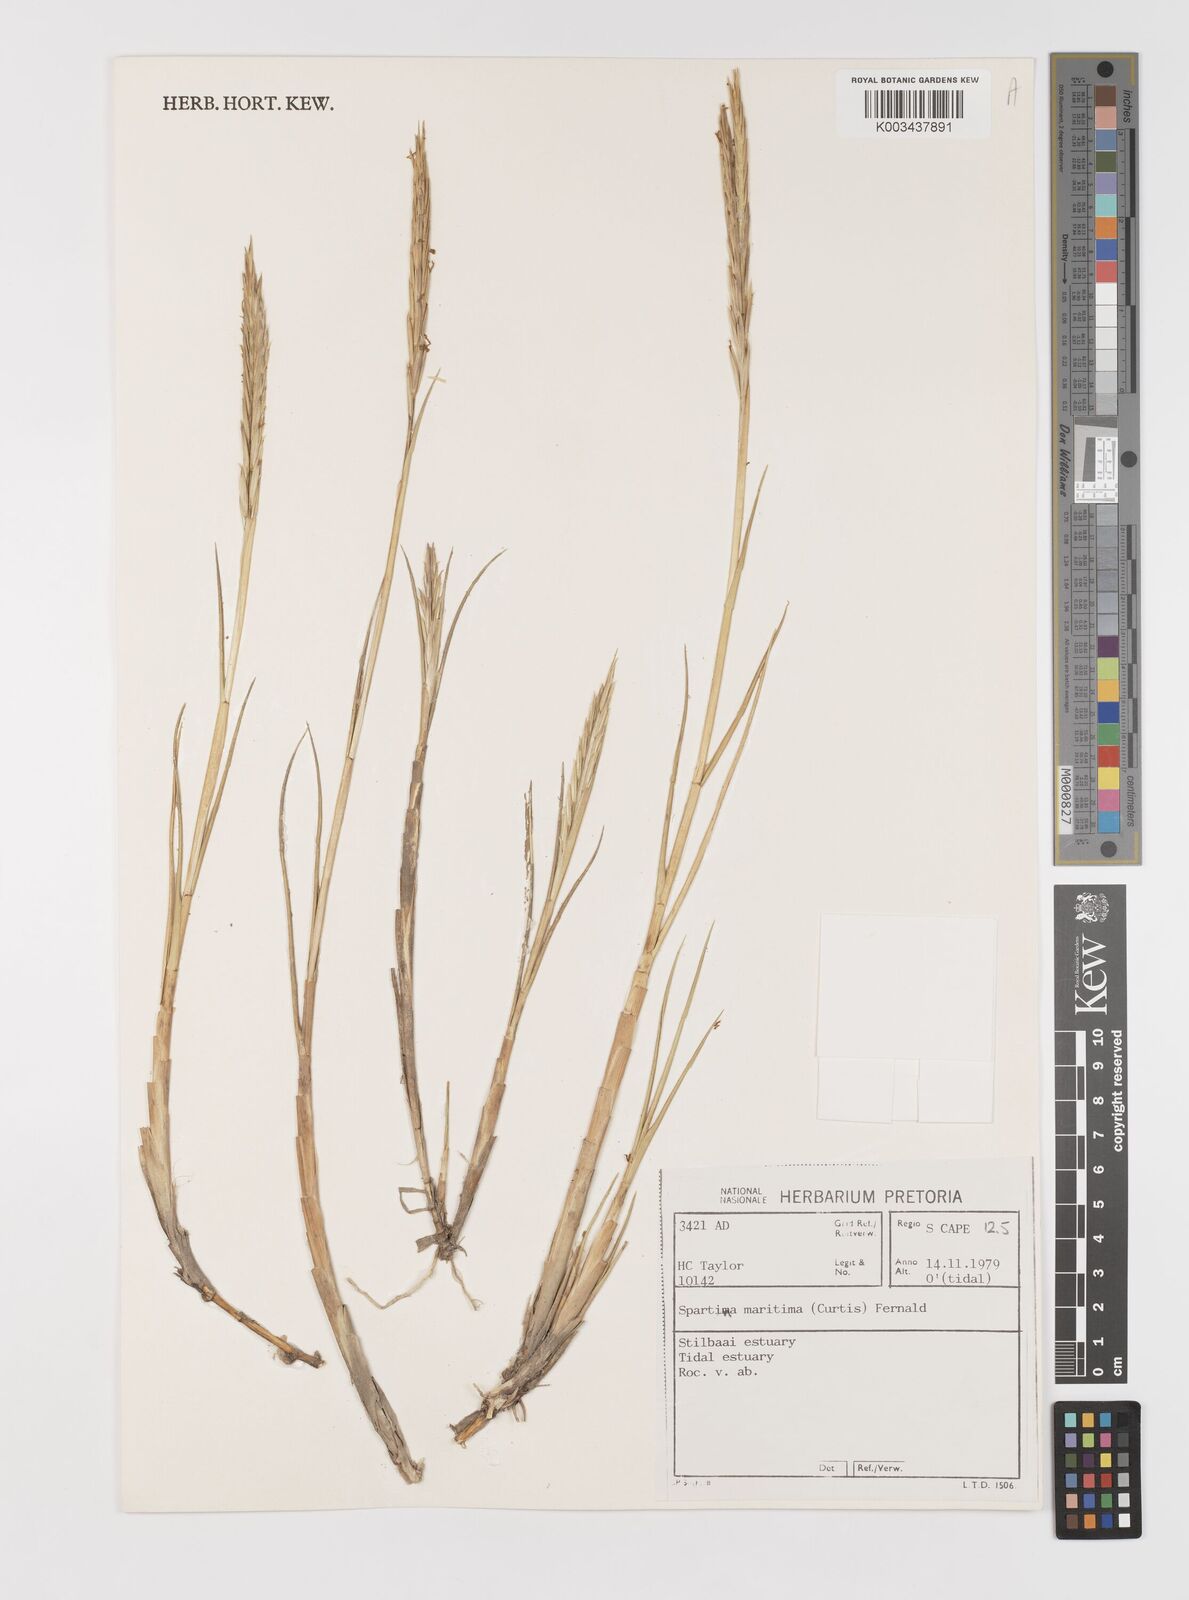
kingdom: Plantae
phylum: Tracheophyta
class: Liliopsida
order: Poales
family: Poaceae
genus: Sporobolus
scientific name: Sporobolus maritimus
